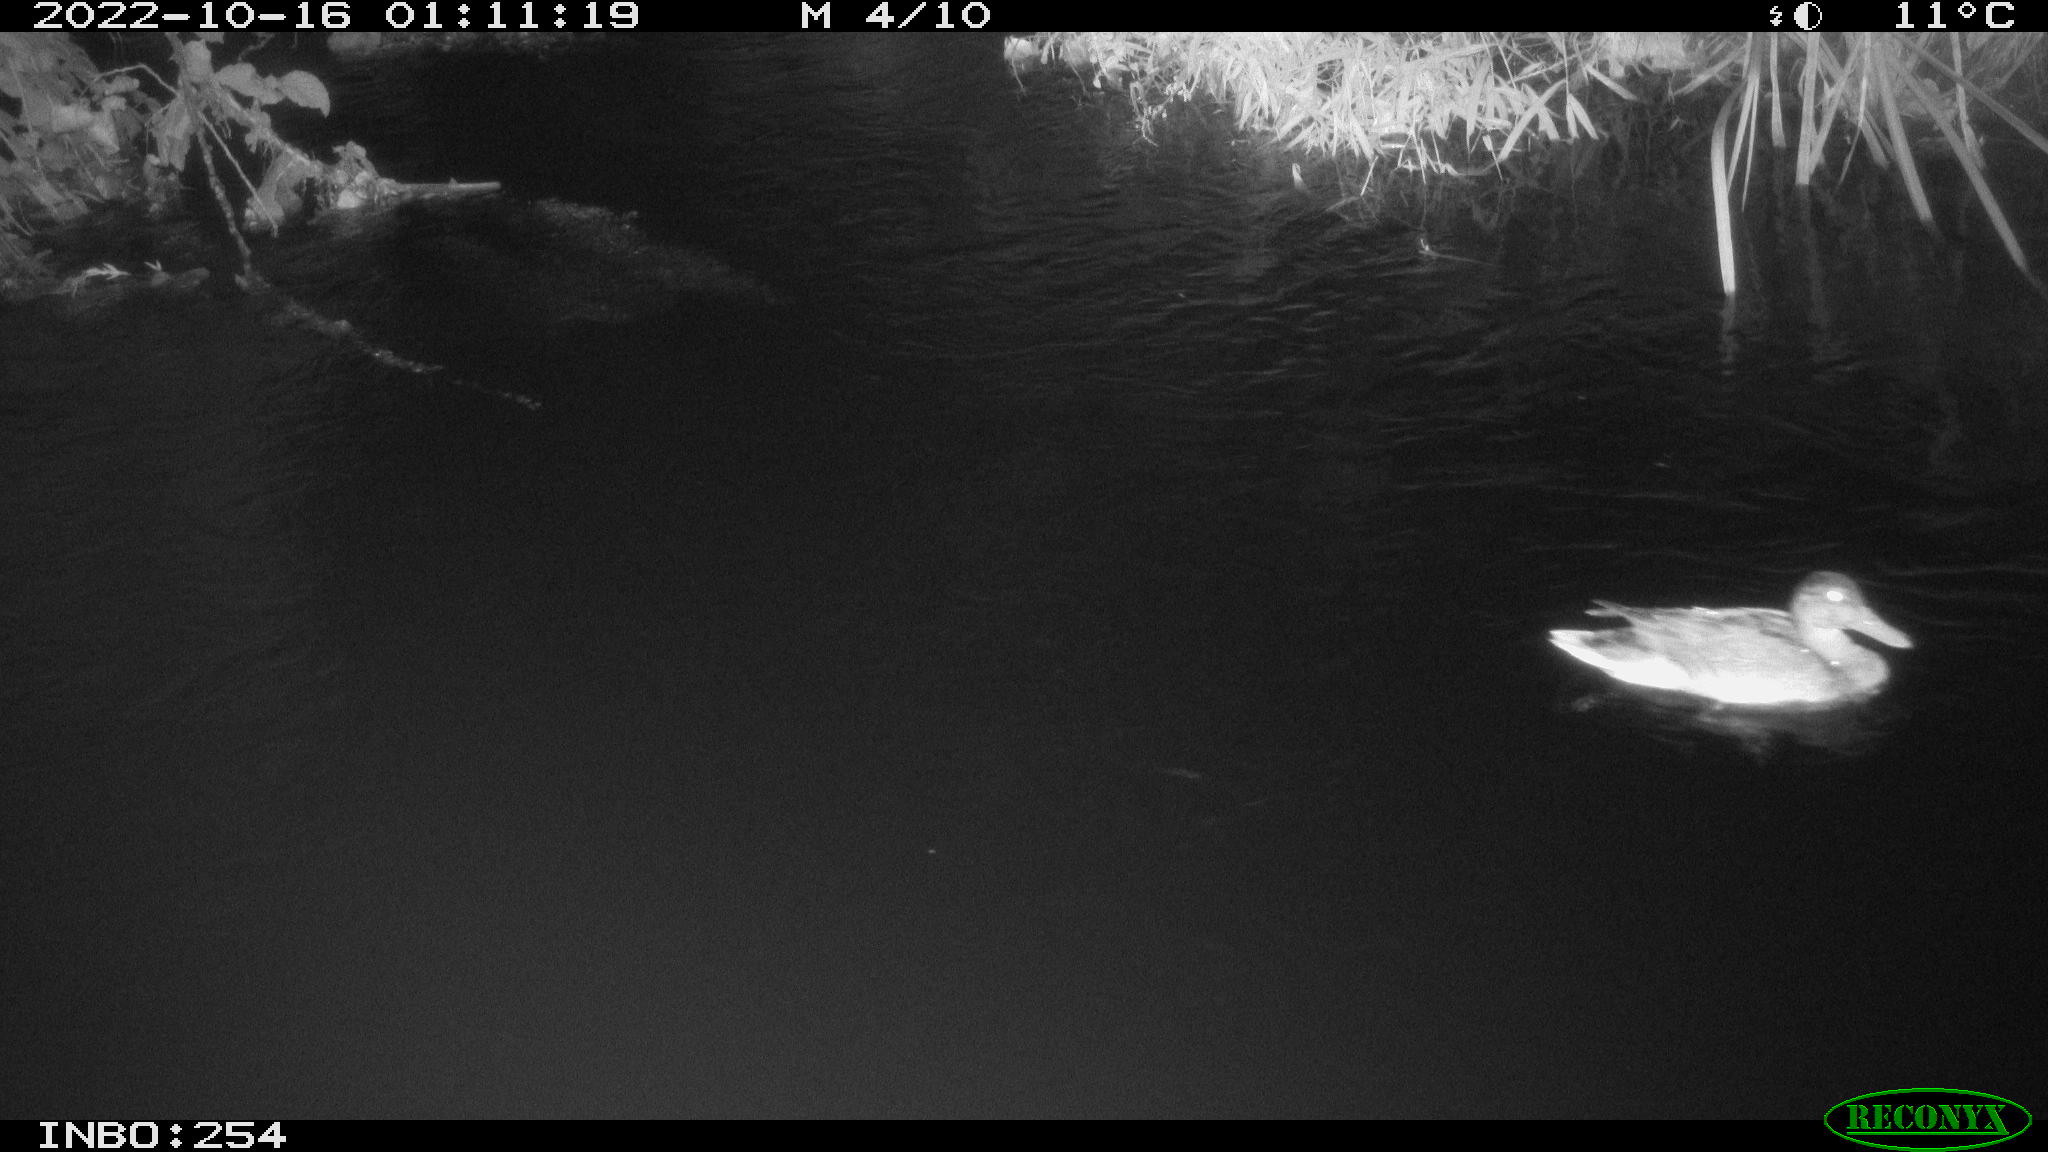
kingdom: Animalia
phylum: Chordata
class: Aves
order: Anseriformes
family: Anatidae
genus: Anas
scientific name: Anas
